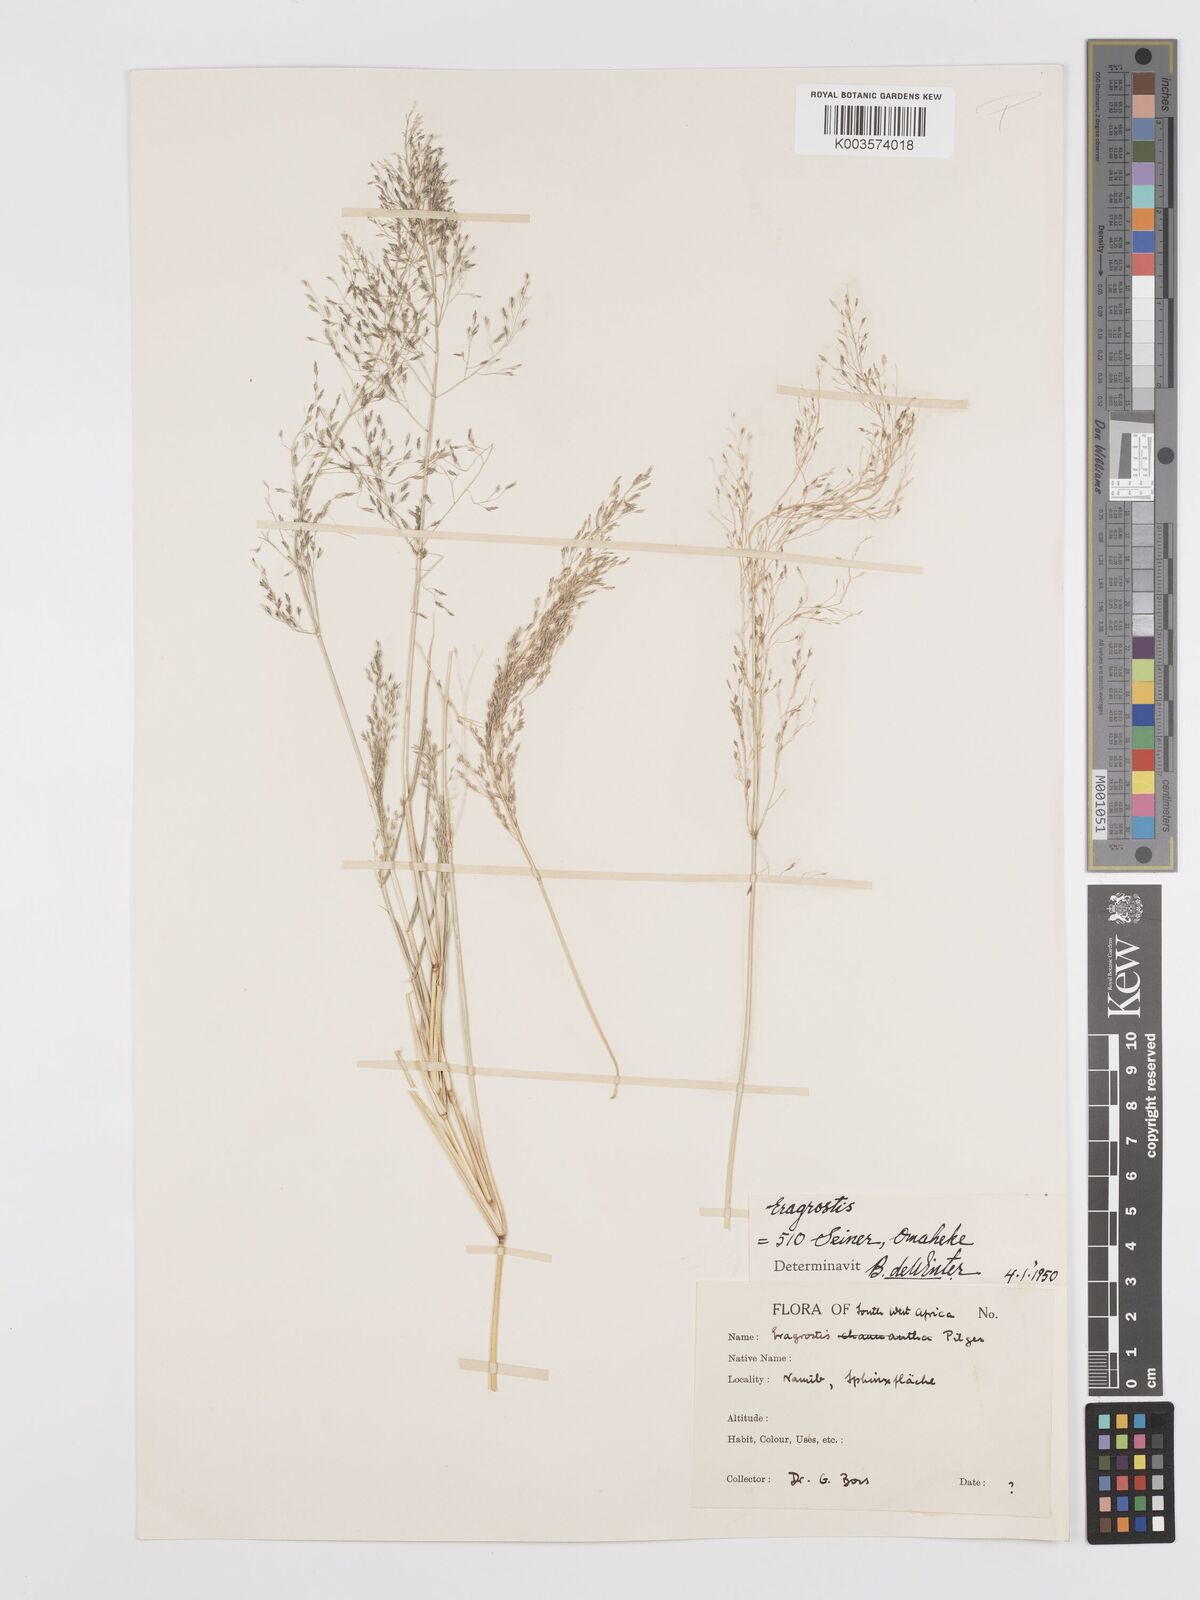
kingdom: Plantae
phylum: Tracheophyta
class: Liliopsida
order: Poales
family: Poaceae
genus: Eragrostis
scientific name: Eragrostis cylindriflora
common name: Cylinderflower lovegrass
